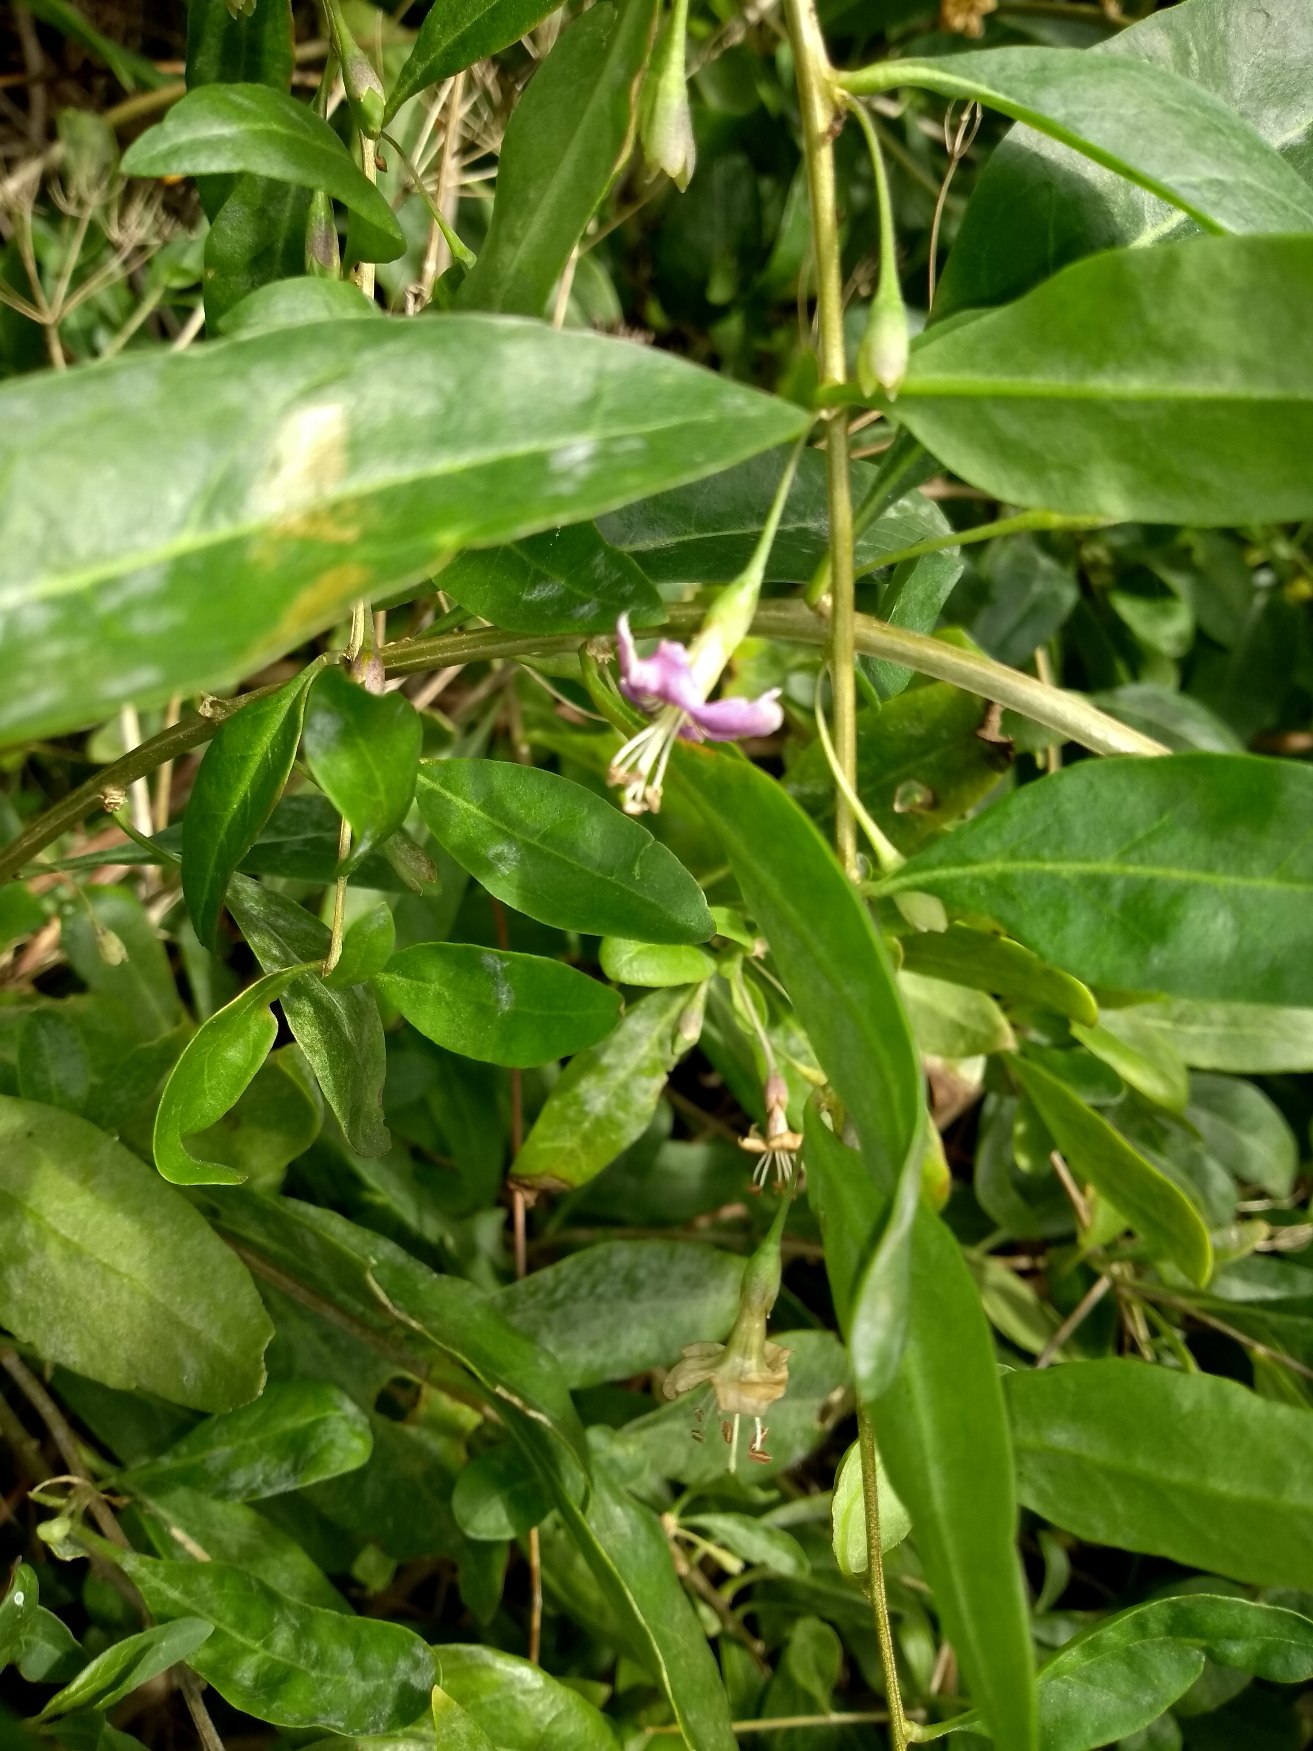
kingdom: Plantae
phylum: Tracheophyta
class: Magnoliopsida
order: Solanales
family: Solanaceae
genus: Lycium
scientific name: Lycium barbarum
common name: Bukketorn
